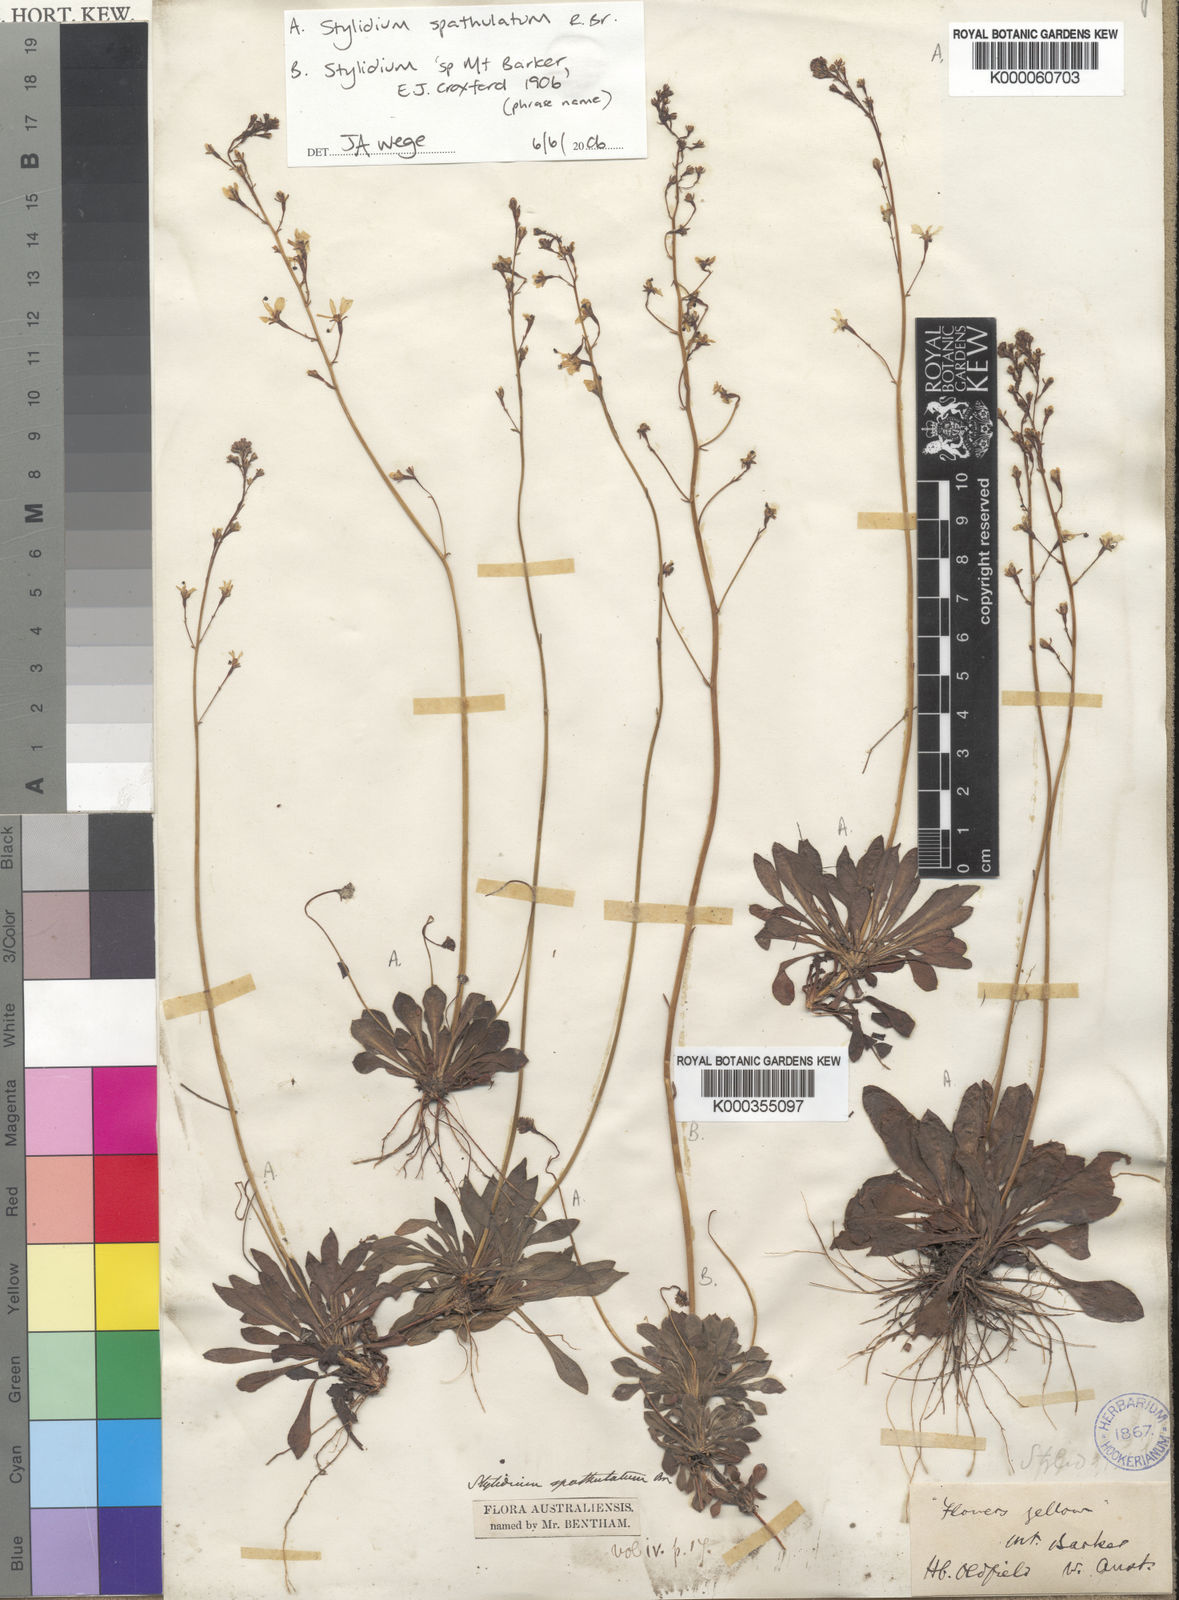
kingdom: Plantae
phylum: Tracheophyta
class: Magnoliopsida
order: Asterales
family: Stylidiaceae
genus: Stylidium
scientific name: Stylidium
